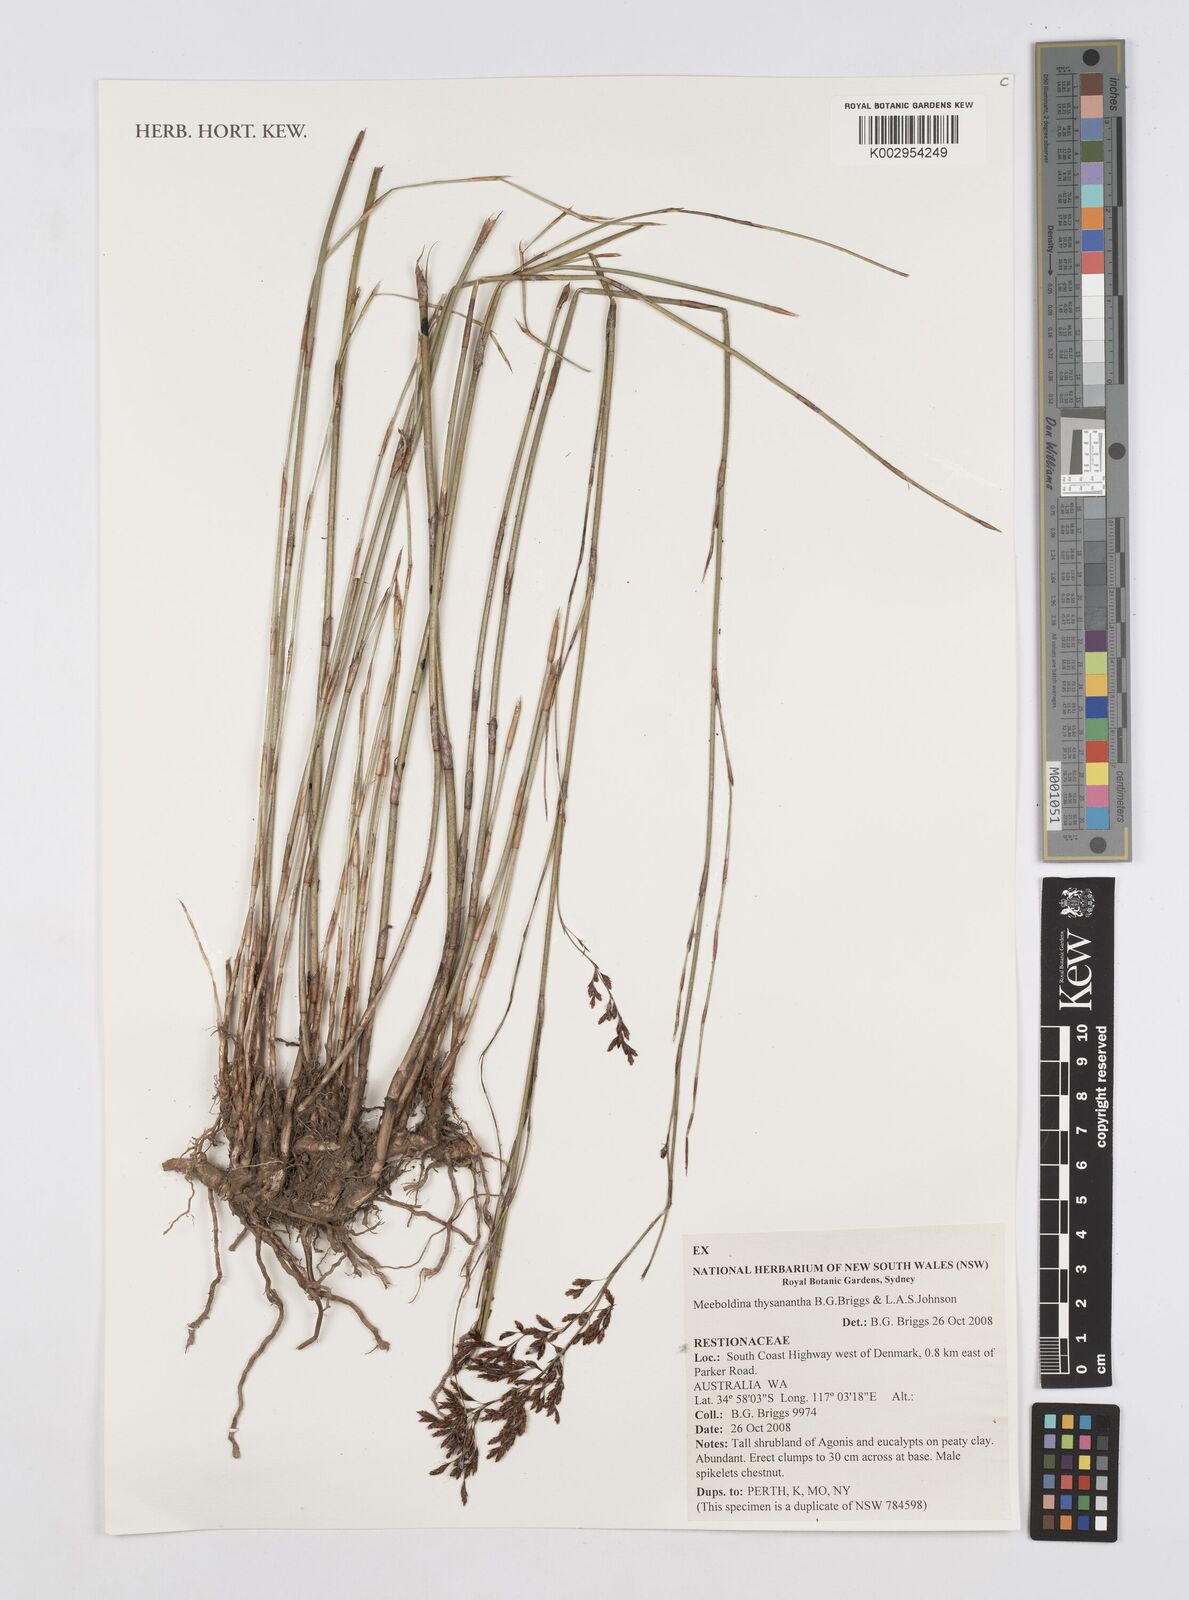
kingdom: Plantae
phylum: Tracheophyta
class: Liliopsida
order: Poales
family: Restionaceae
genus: Leptocarpus
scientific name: Leptocarpus thysananthus
